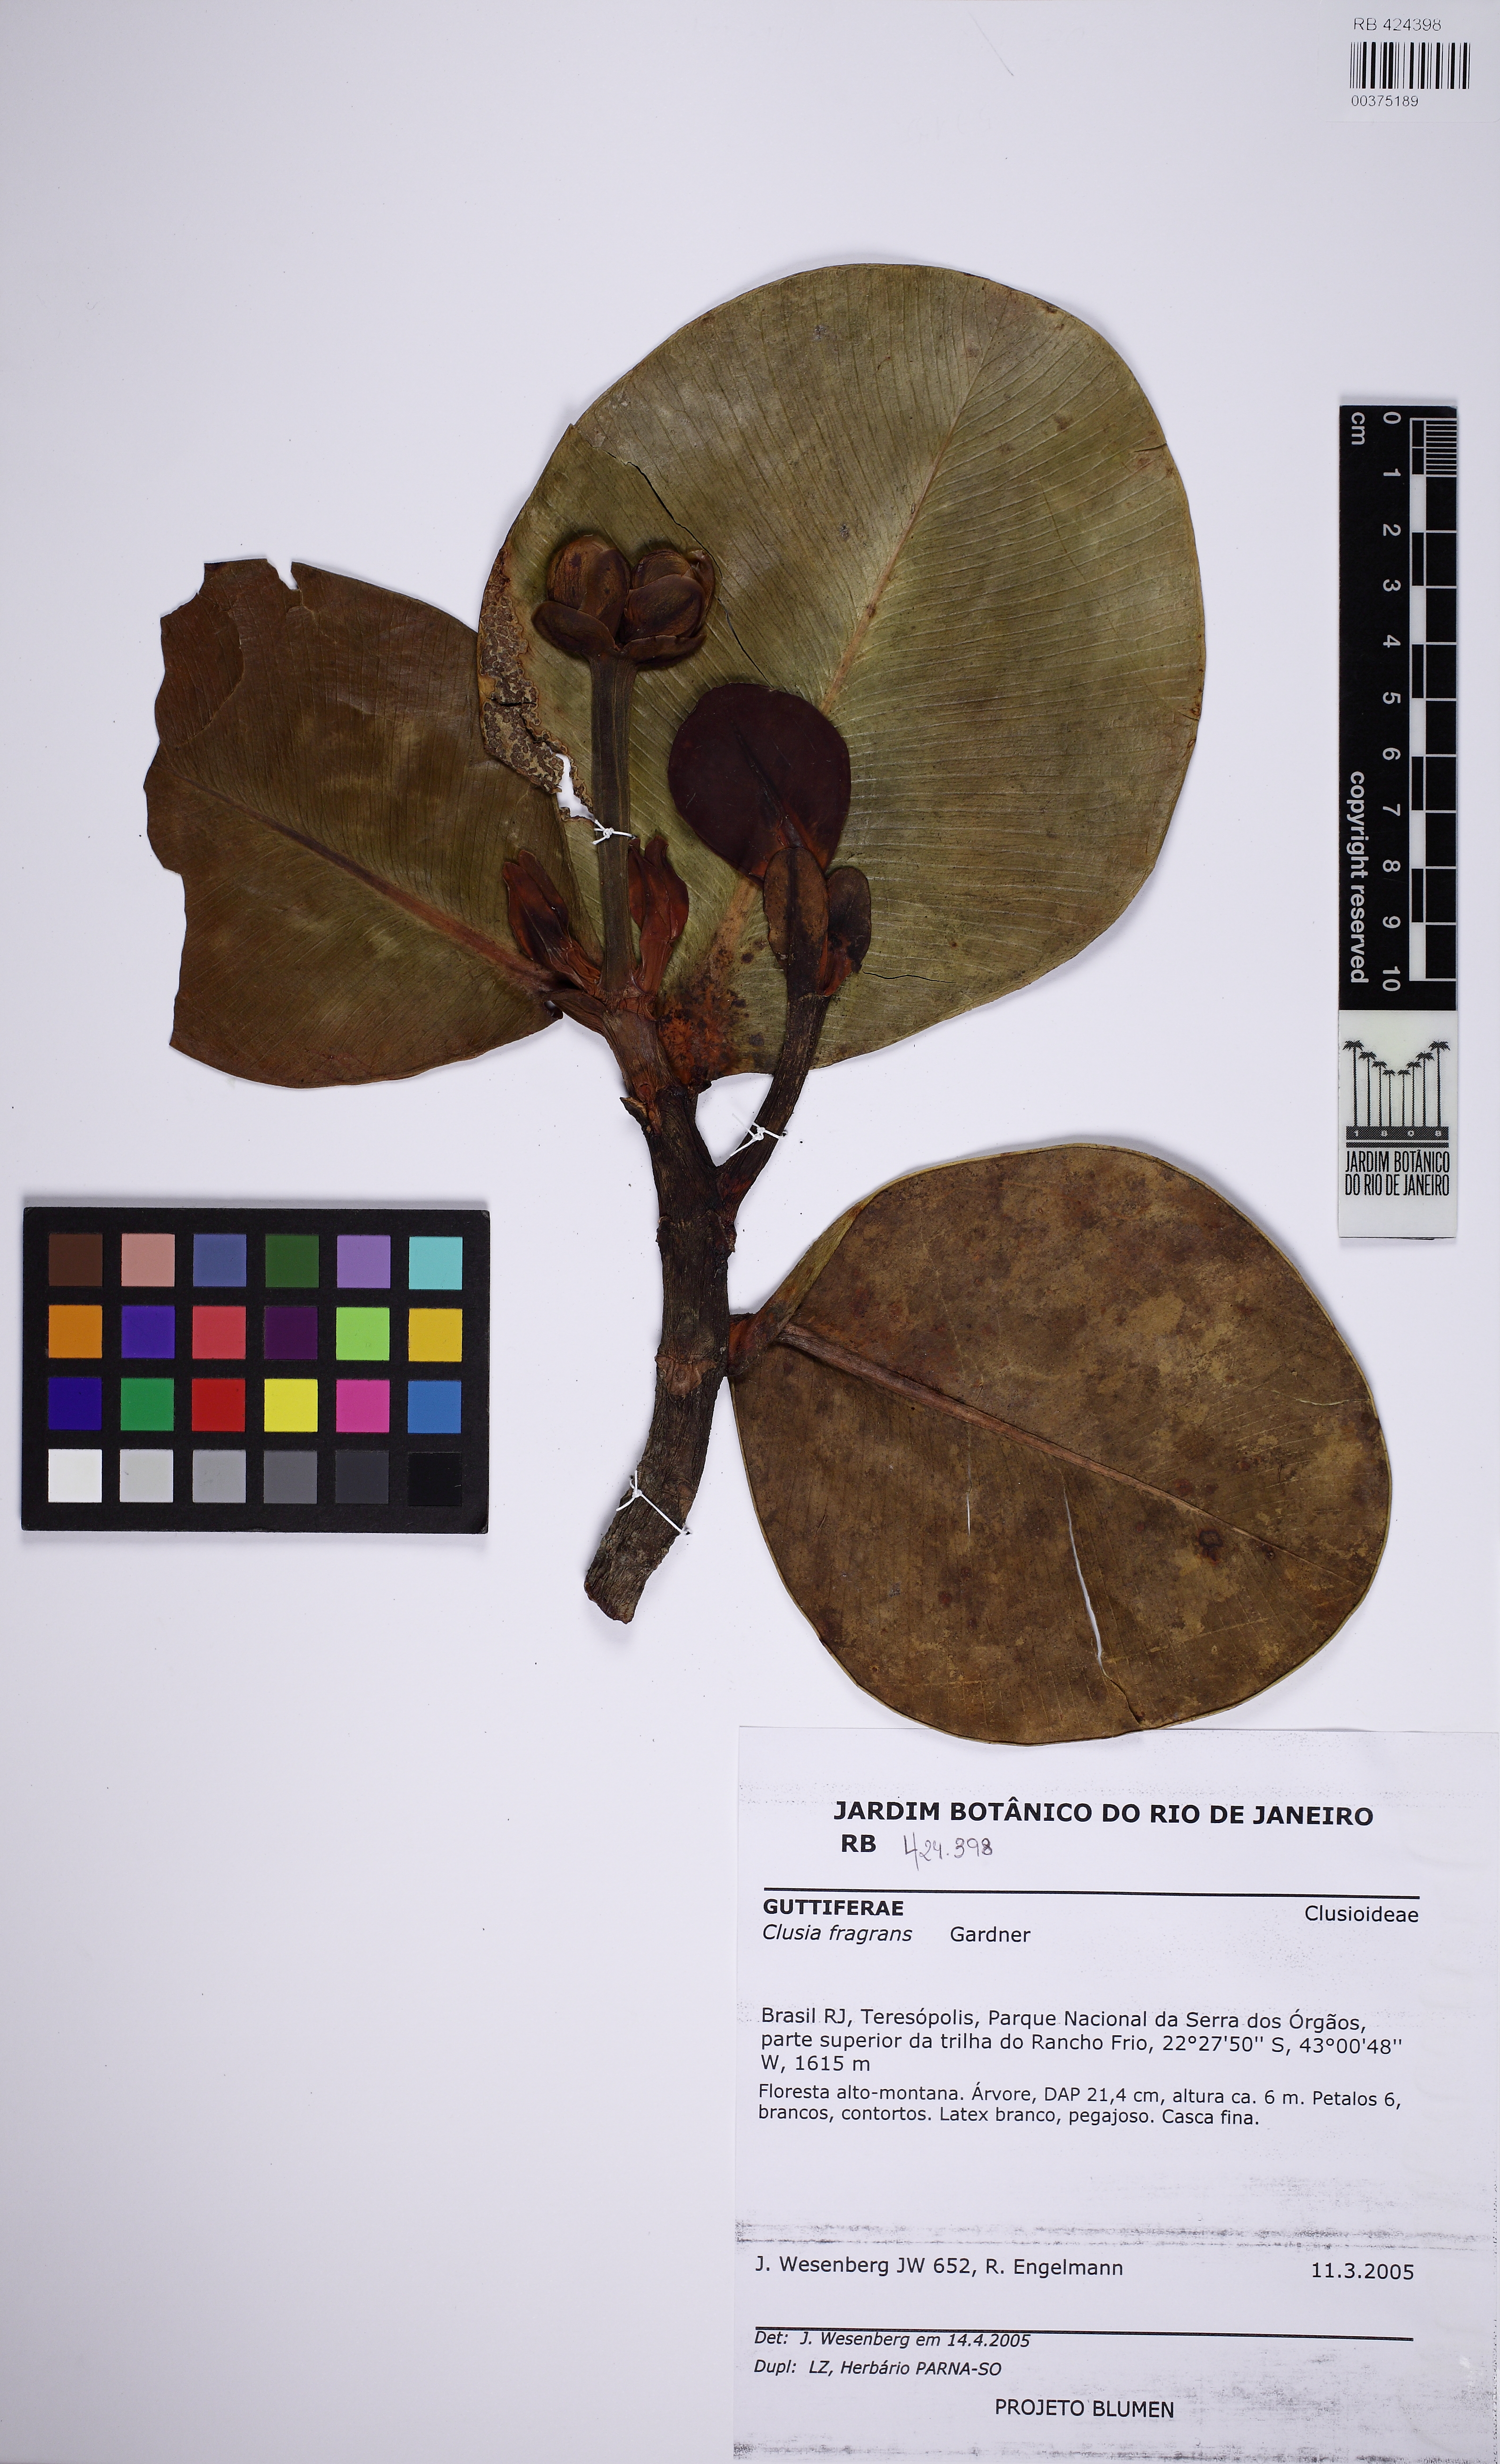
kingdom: Plantae
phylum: Tracheophyta
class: Magnoliopsida
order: Malpighiales
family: Clusiaceae
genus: Clusia
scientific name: Clusia fragrans
